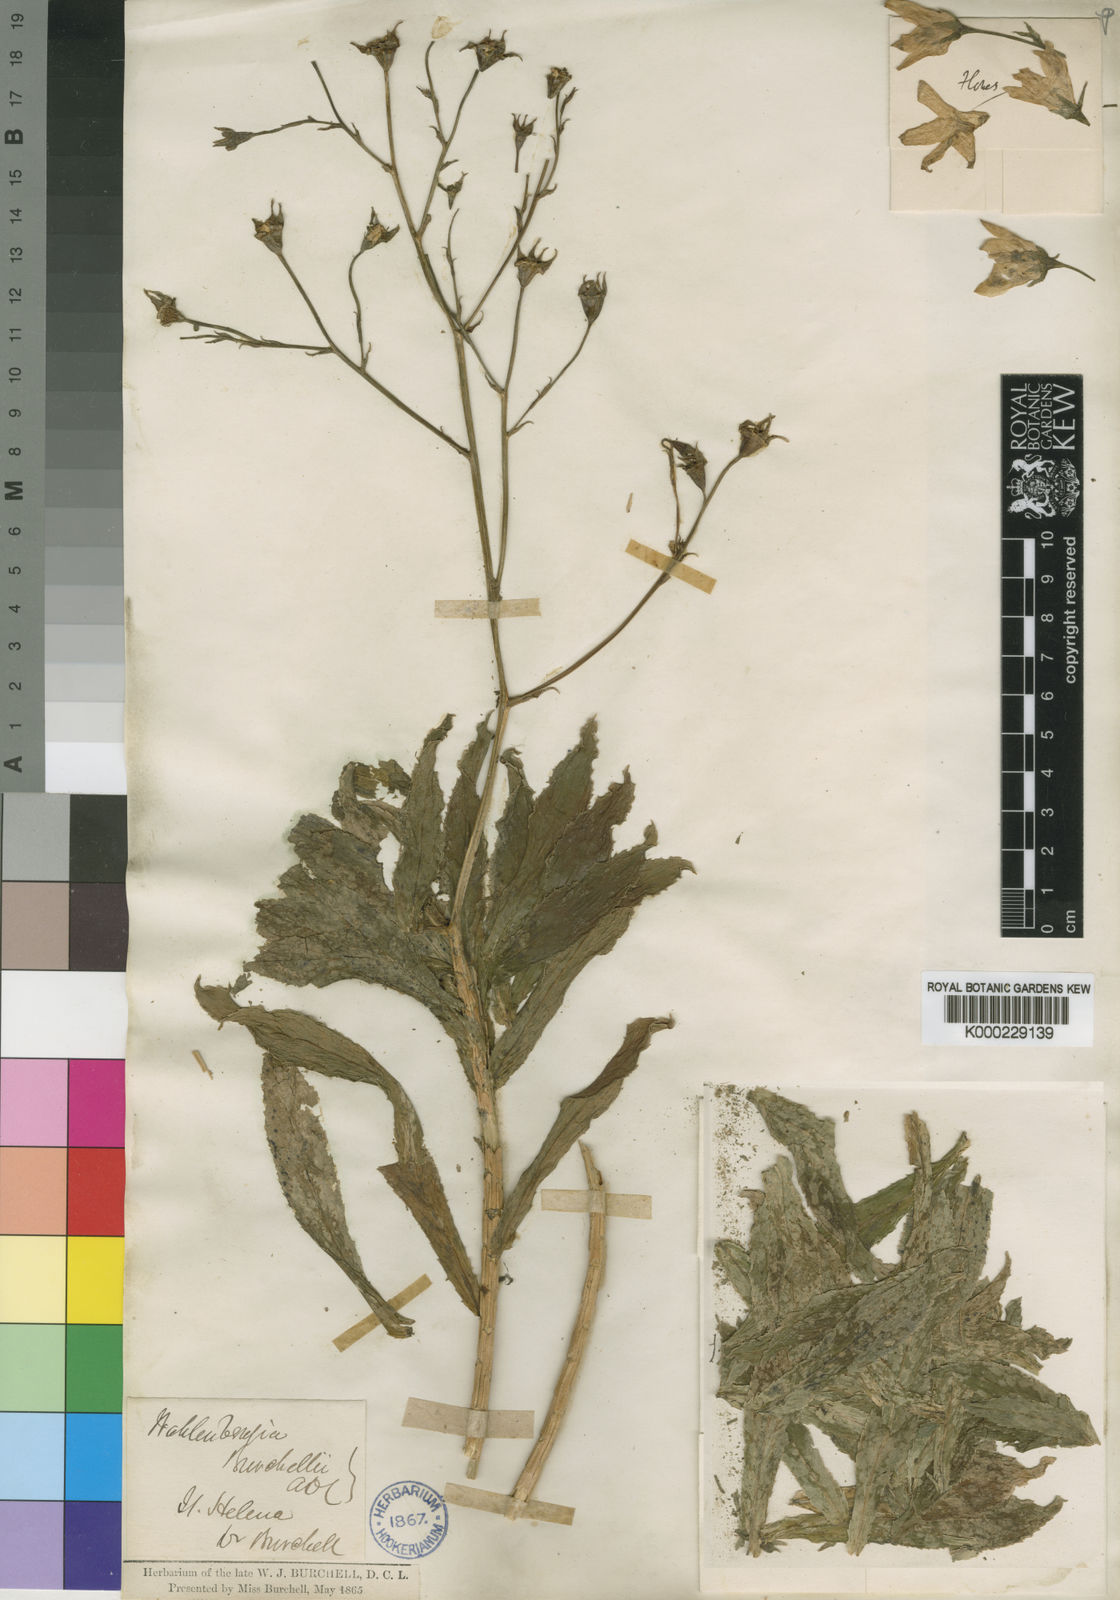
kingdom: Plantae
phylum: Tracheophyta
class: Magnoliopsida
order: Asterales
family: Campanulaceae
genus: Wahlenbergia
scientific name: Wahlenbergia roxburghii
